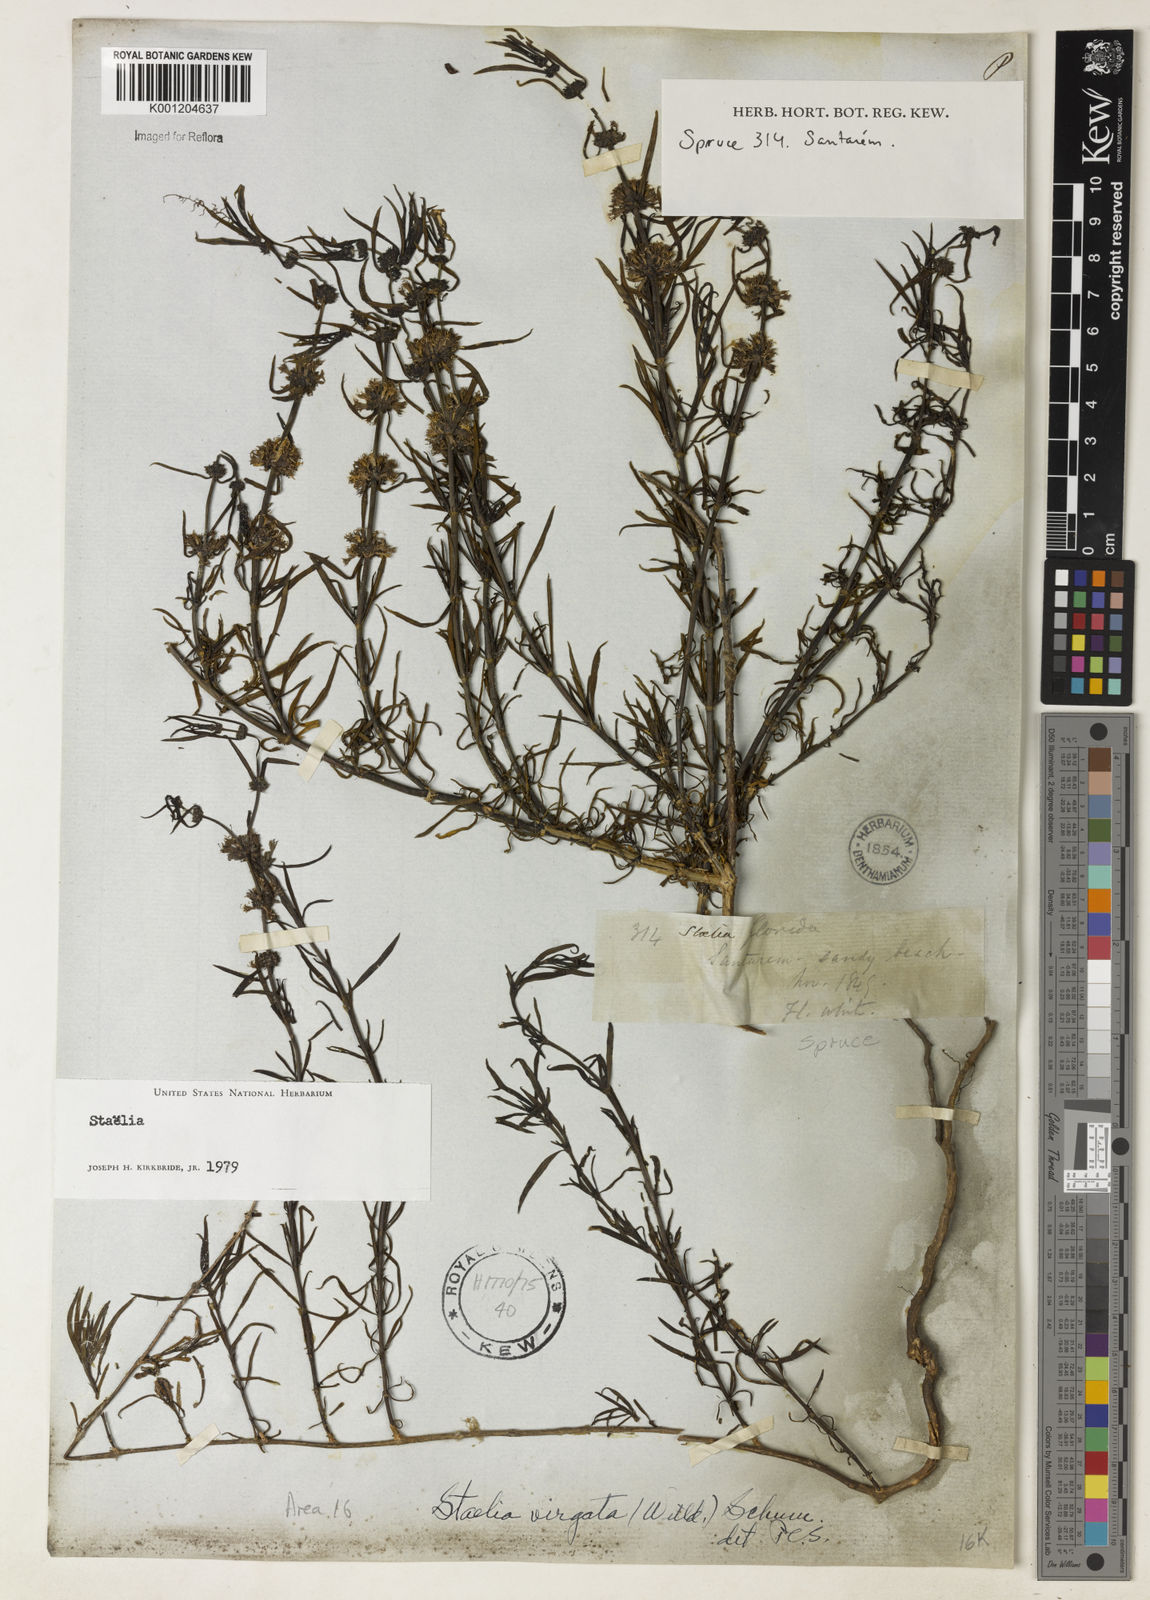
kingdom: Plantae
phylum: Tracheophyta
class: Magnoliopsida
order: Gentianales
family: Rubiaceae
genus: Staelia
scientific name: Staelia virgata
